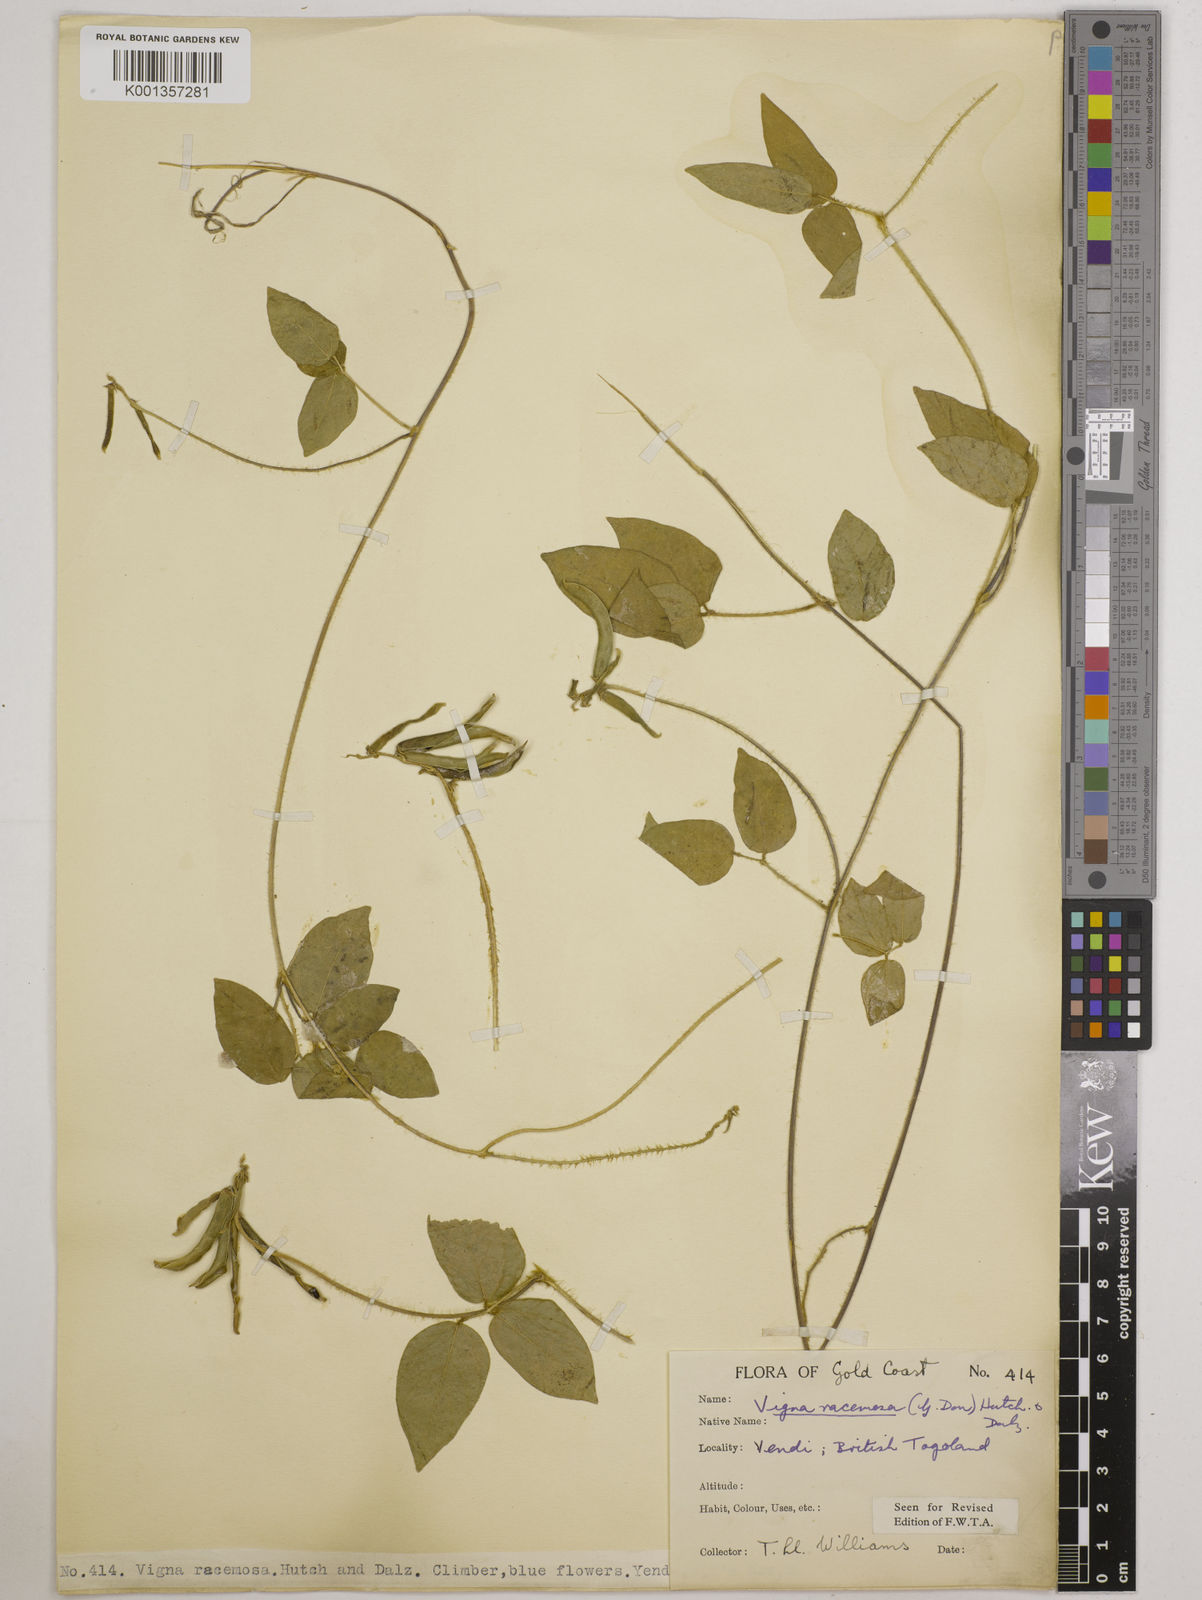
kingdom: Plantae
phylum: Tracheophyta
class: Magnoliopsida
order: Fabales
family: Fabaceae
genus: Vigna
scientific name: Vigna racemosa
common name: Beans not eaten
